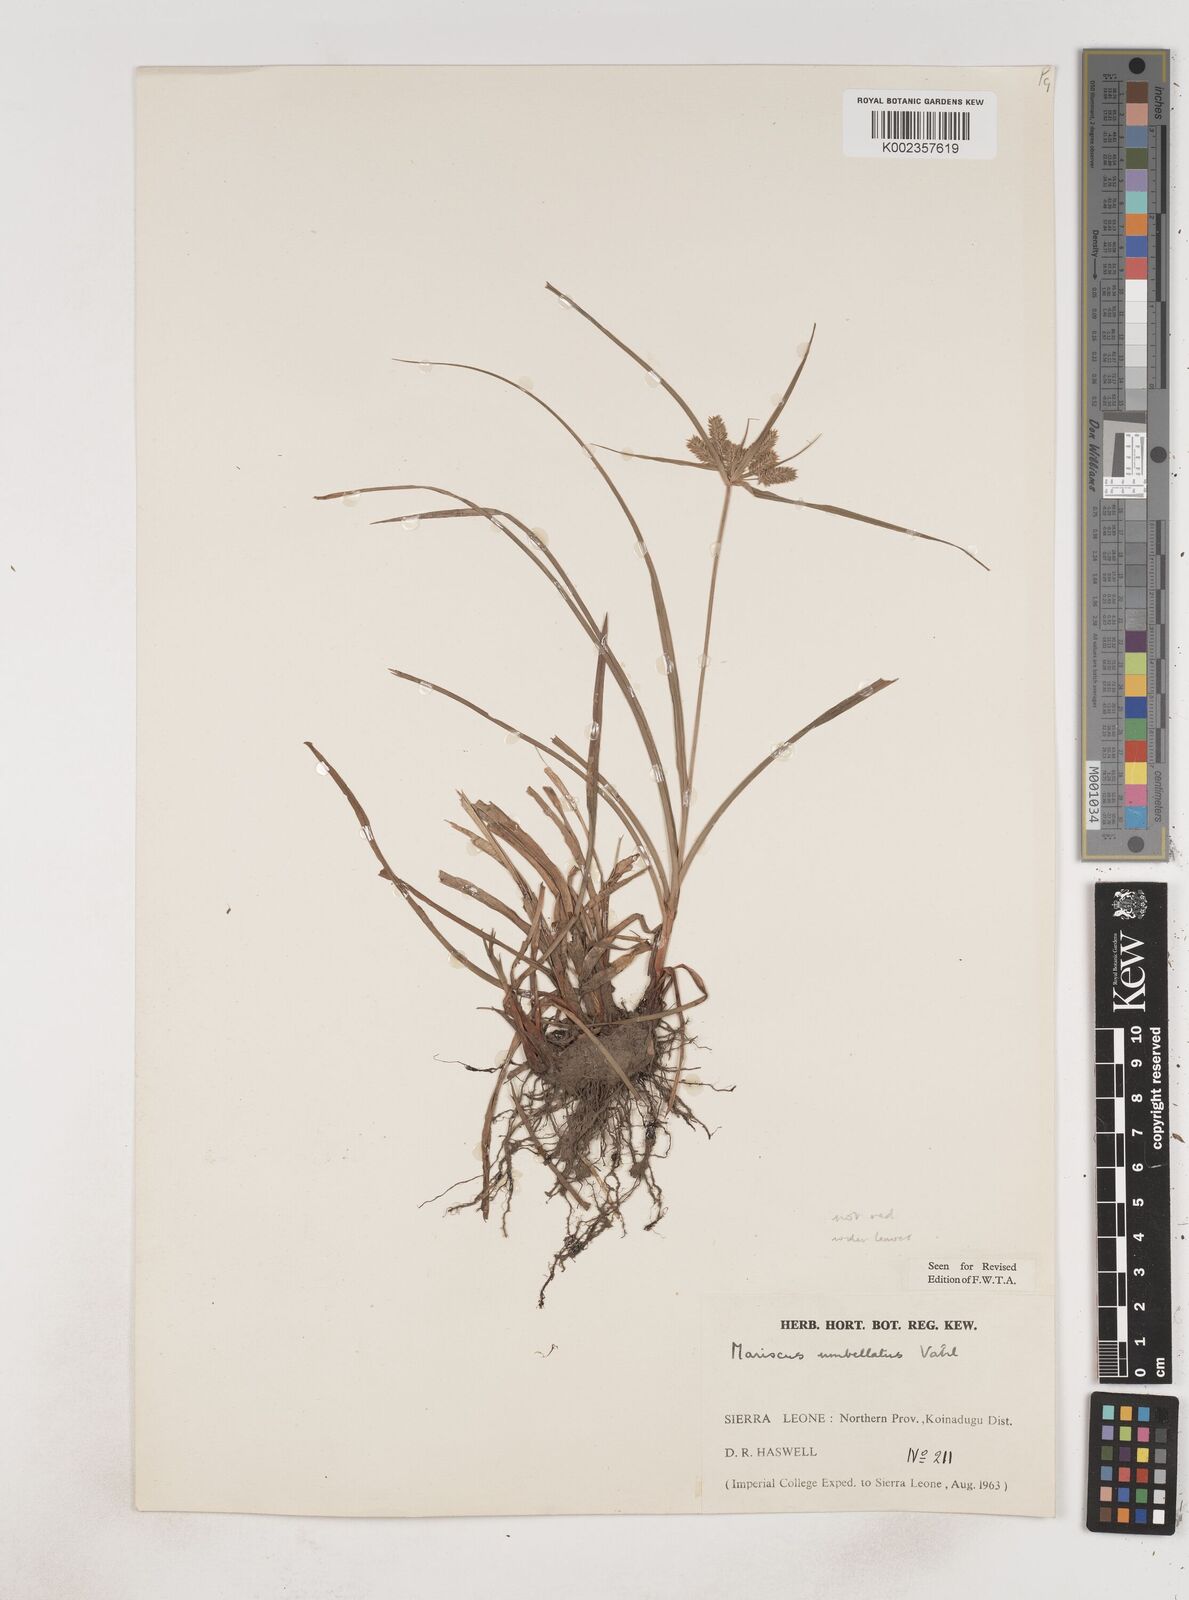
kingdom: Plantae
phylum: Tracheophyta
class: Liliopsida
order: Poales
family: Cyperaceae
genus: Cyperus
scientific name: Cyperus cyperoides
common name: Pacific island flat sedge
